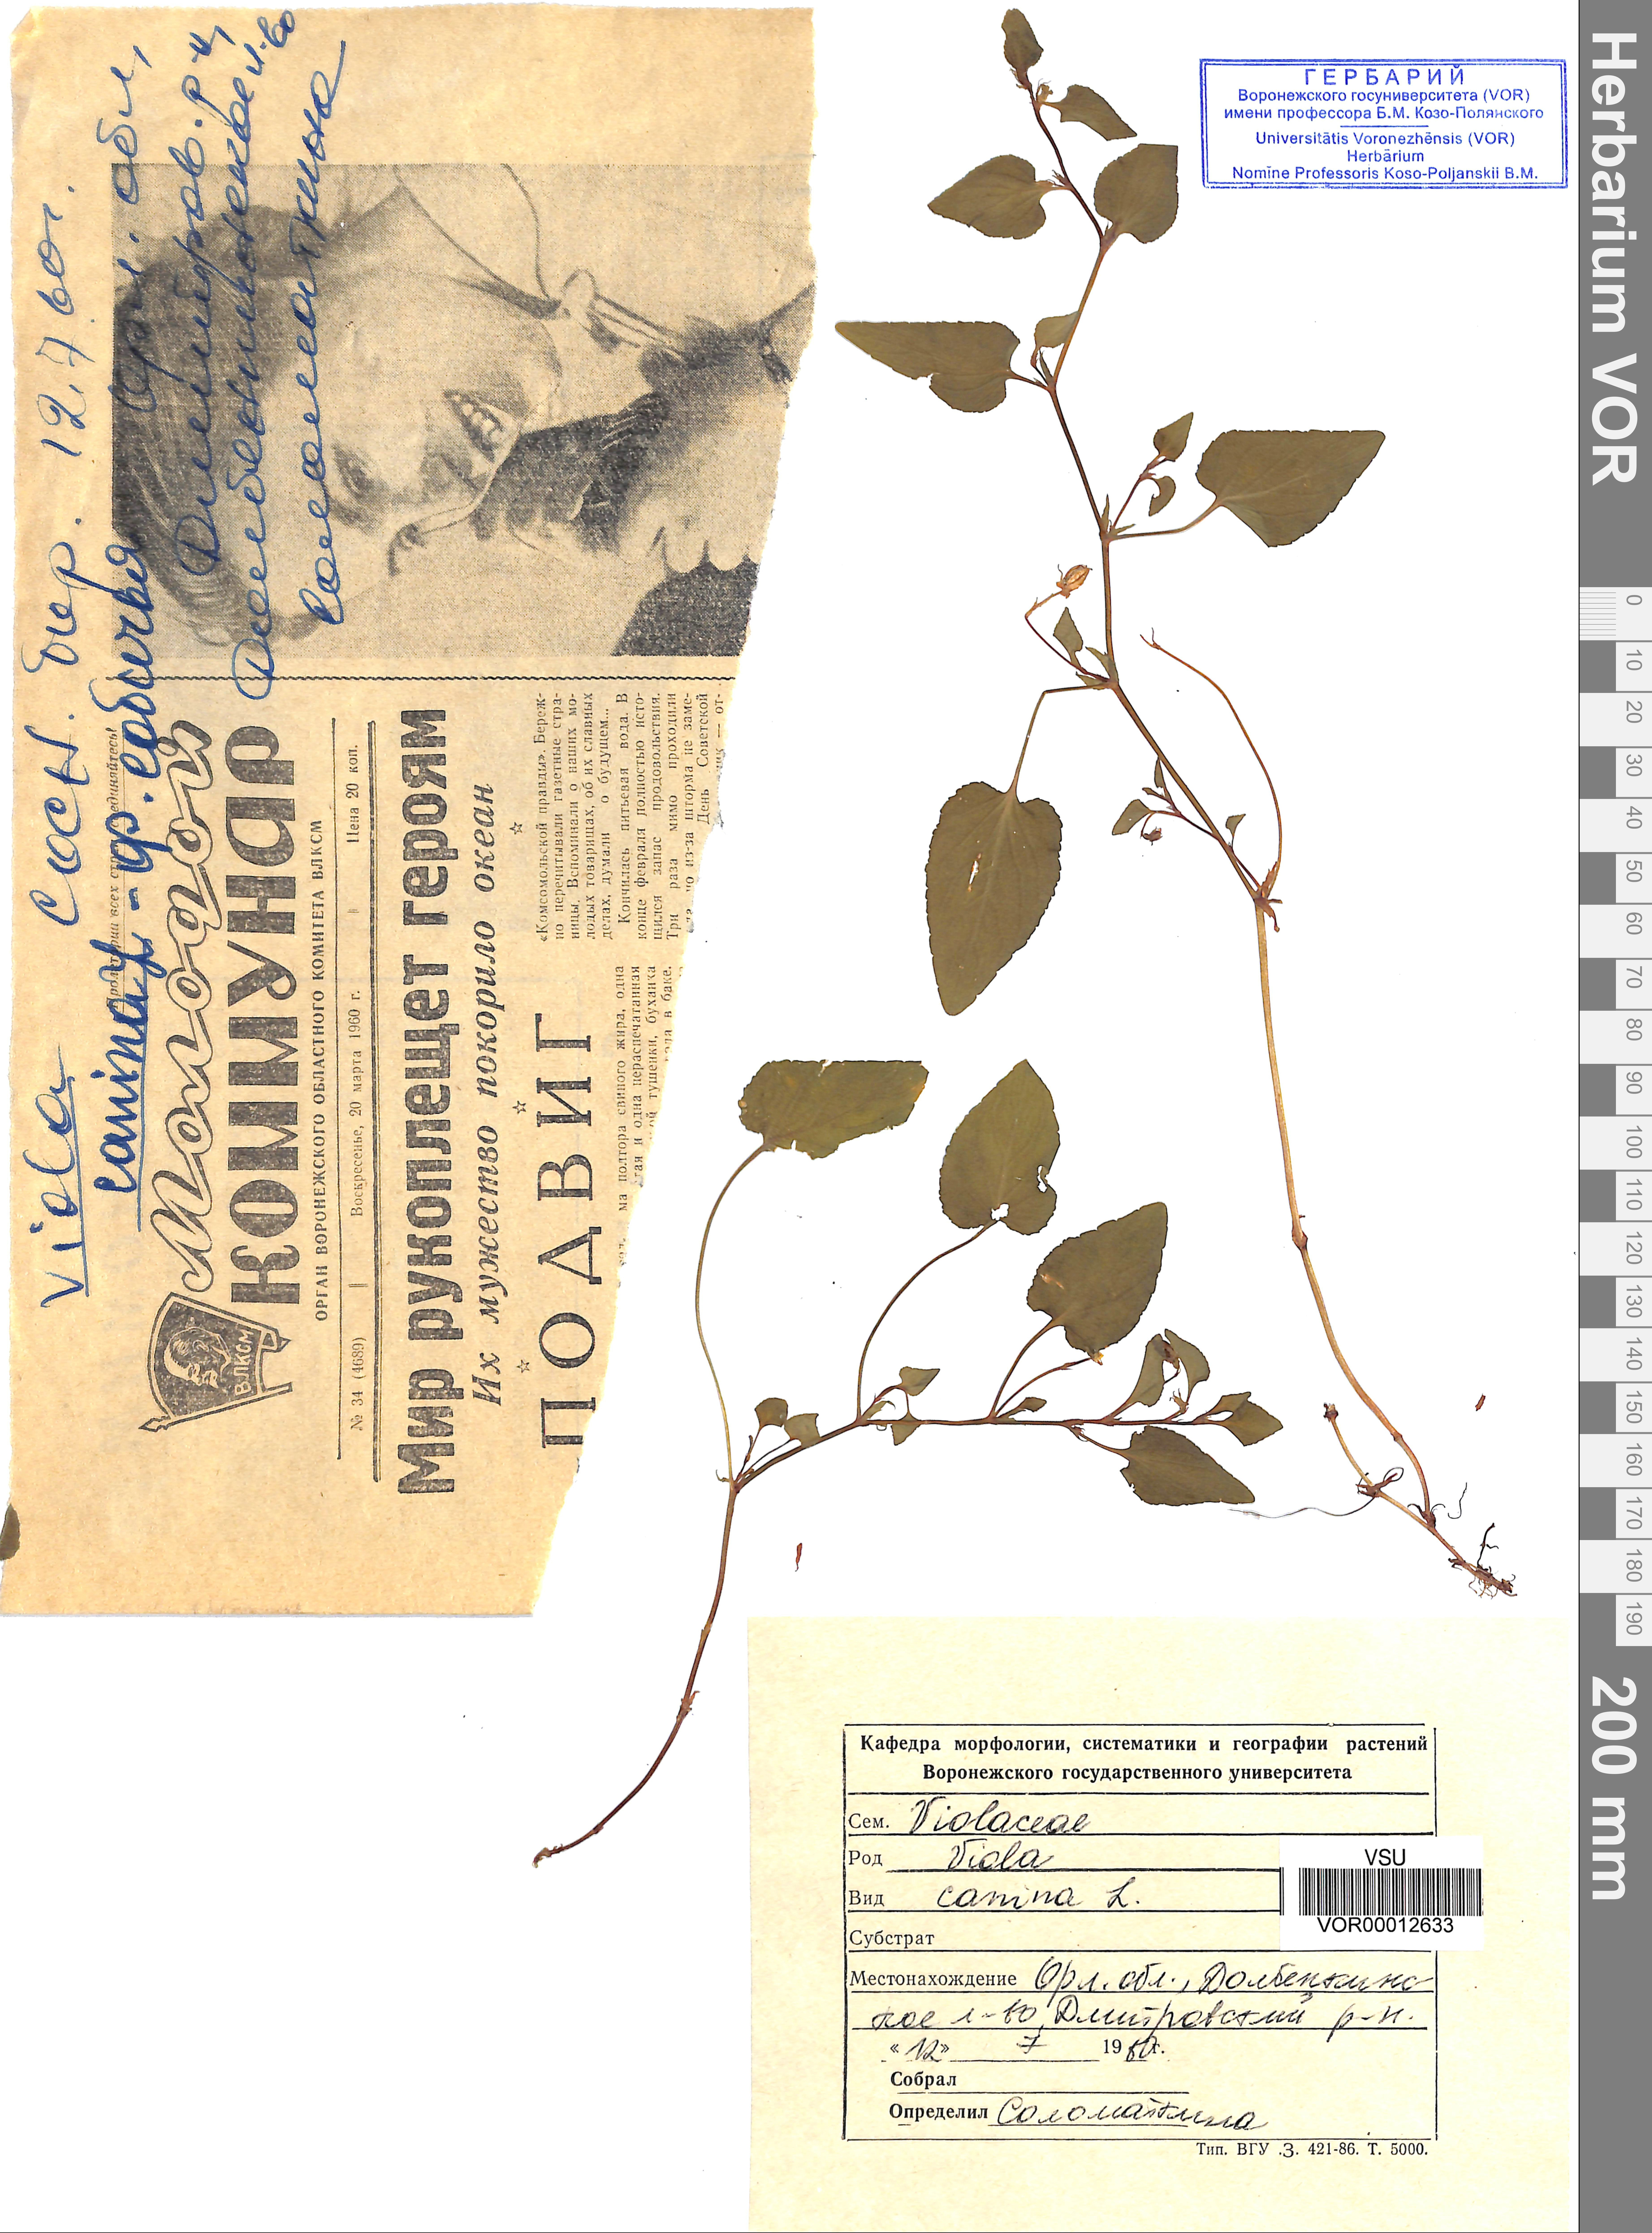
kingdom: Plantae
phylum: Tracheophyta
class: Magnoliopsida
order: Malpighiales
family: Violaceae
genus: Viola
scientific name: Viola canina
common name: Heath dog-violet
